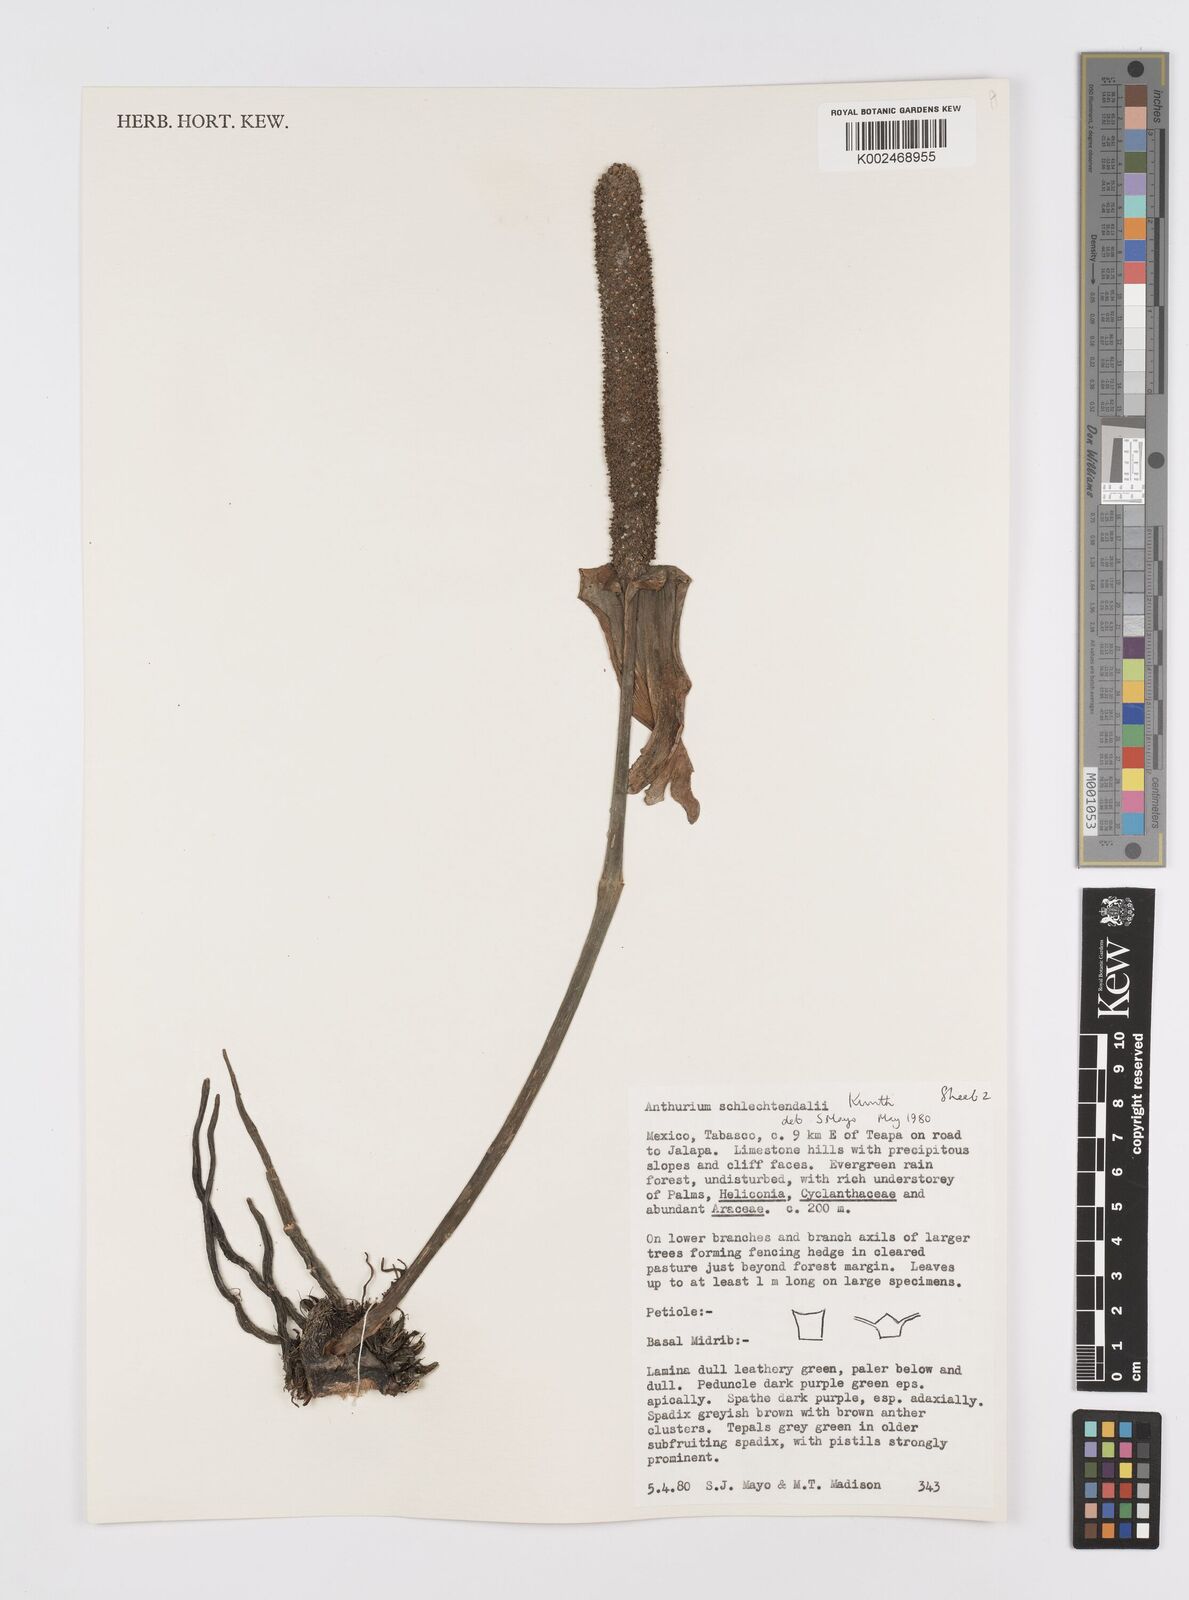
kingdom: Plantae
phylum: Tracheophyta
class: Liliopsida
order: Alismatales
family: Araceae
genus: Anthurium
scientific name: Anthurium schlechtendalii
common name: Laceleaf
